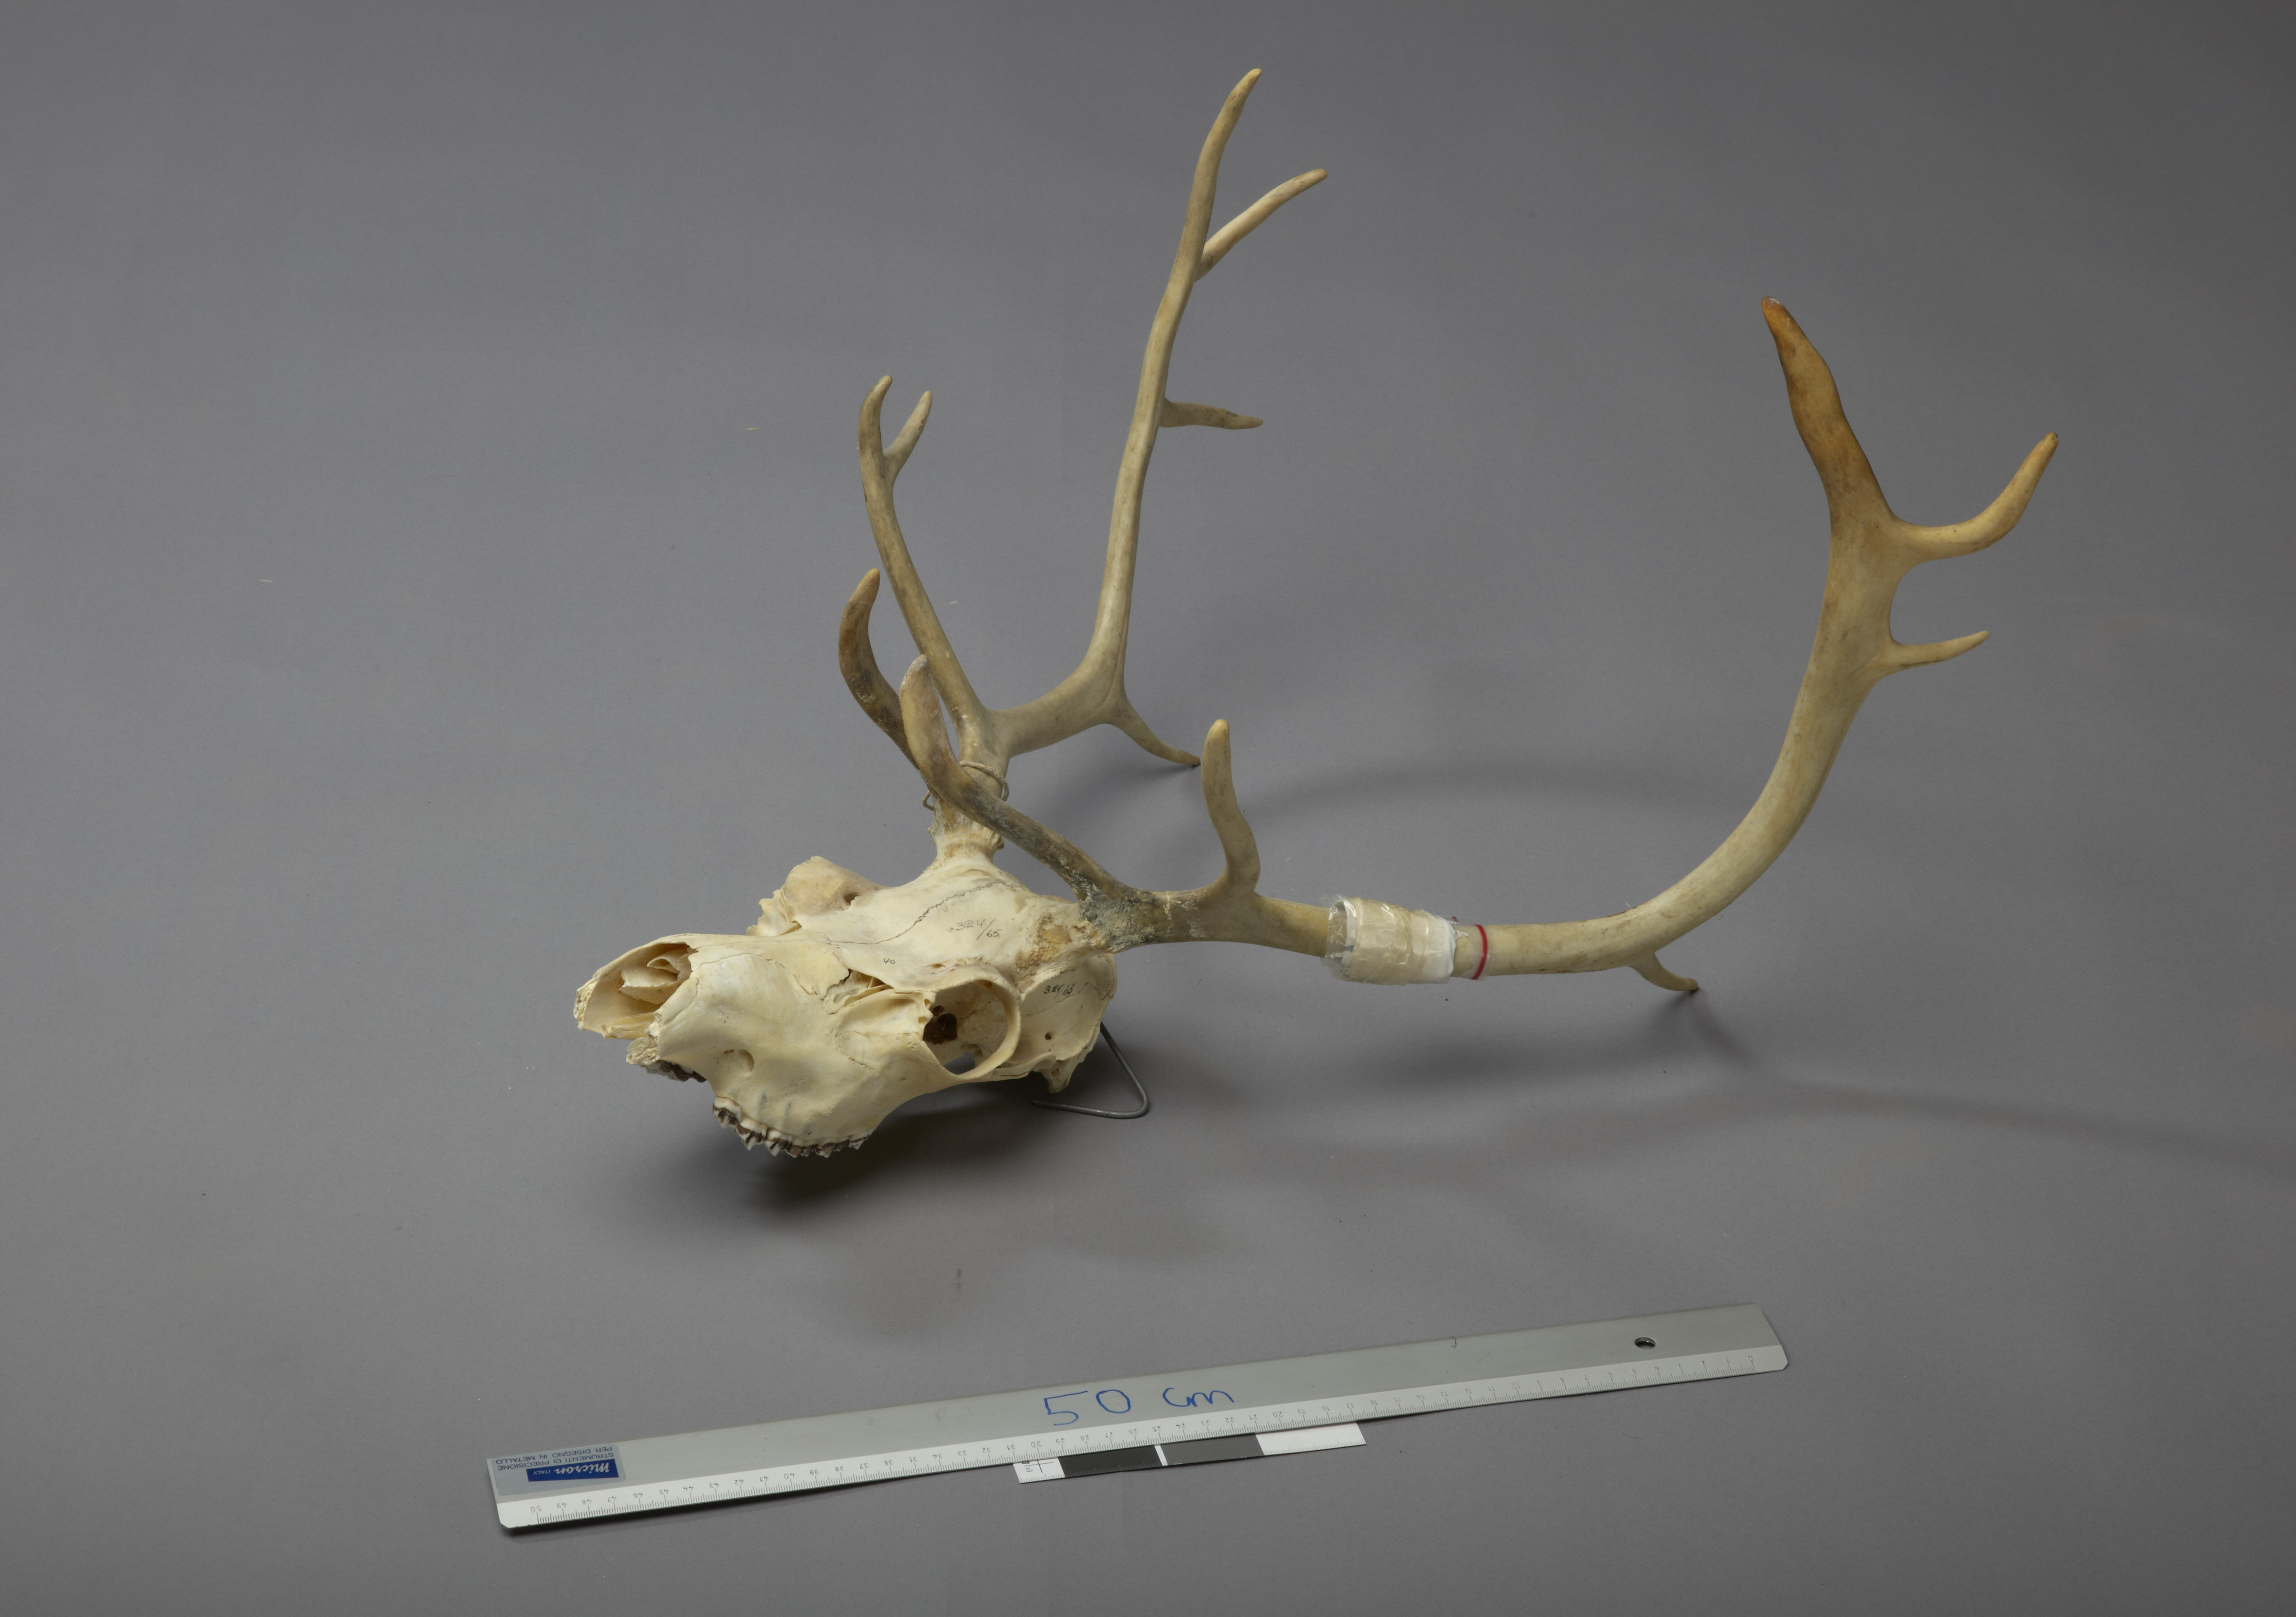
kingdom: Animalia
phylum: Chordata
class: Mammalia
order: Artiodactyla
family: Cervidae
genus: Rangifer
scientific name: Rangifer tarandus
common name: Reindeer
